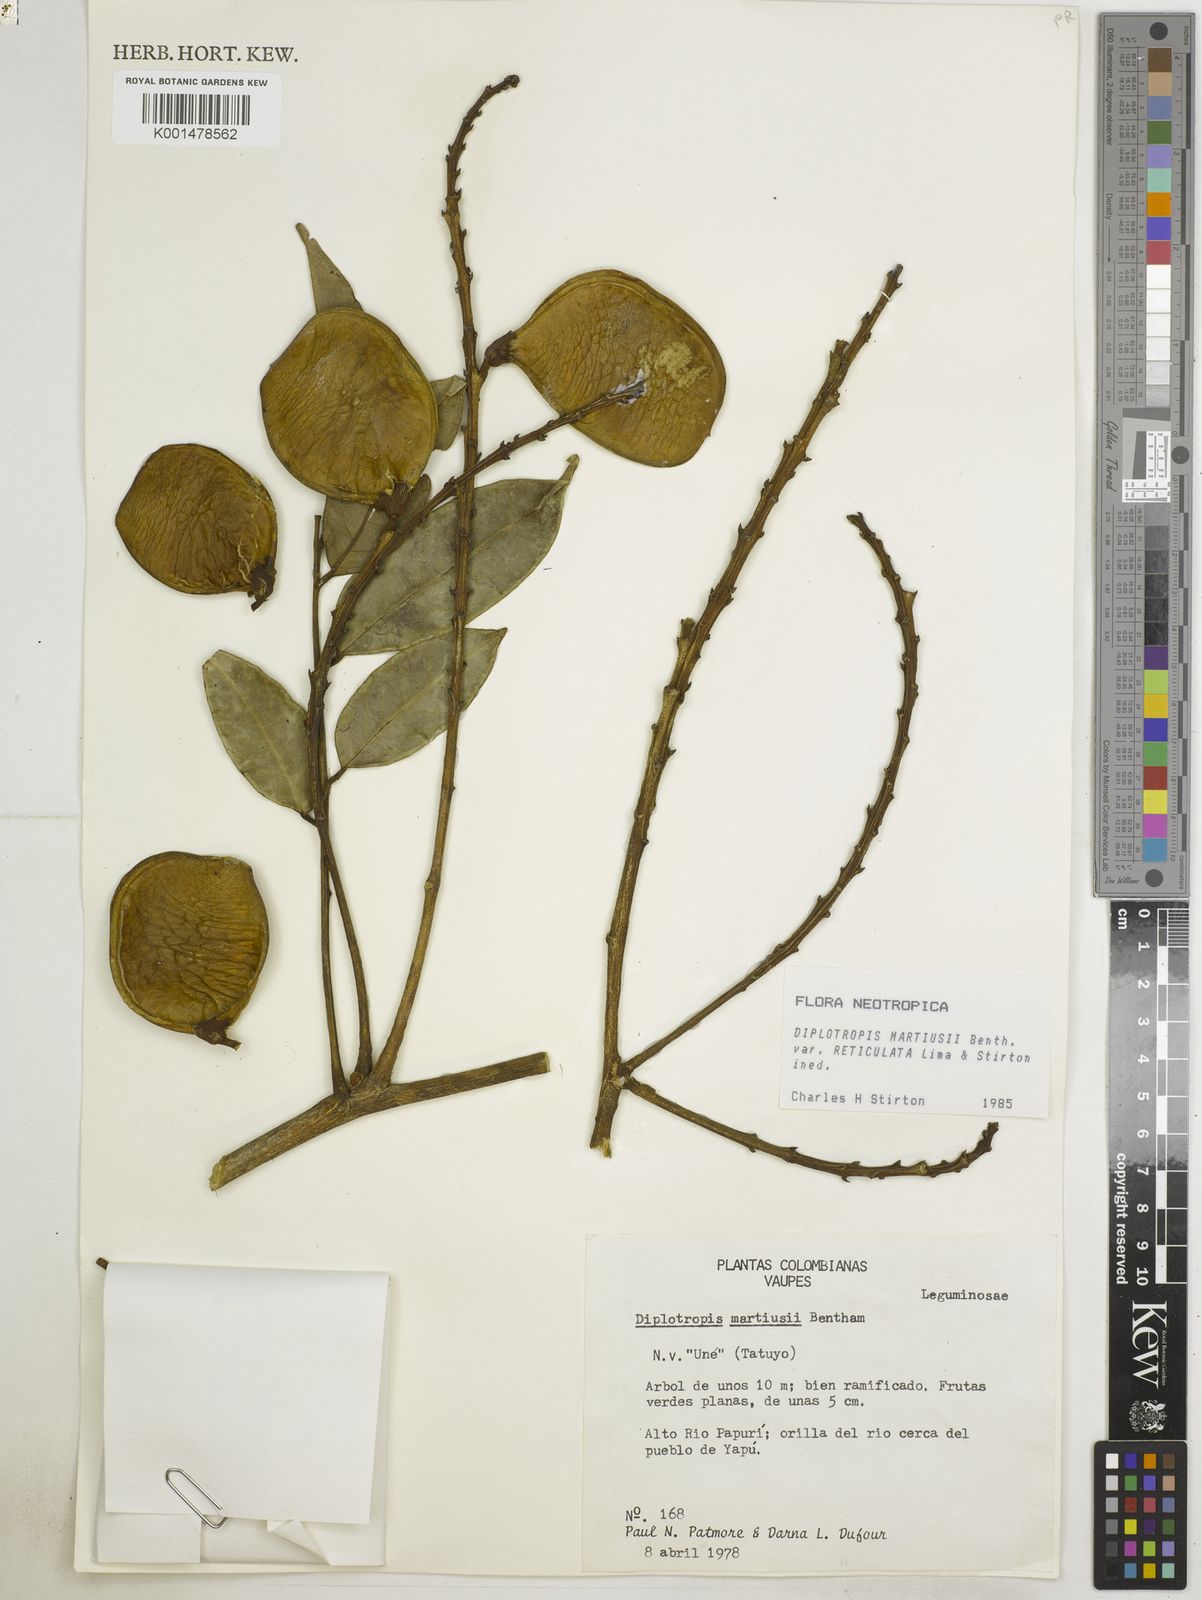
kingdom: Plantae
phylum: Tracheophyta
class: Magnoliopsida
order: Fabales
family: Fabaceae
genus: Diplotropis
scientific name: Diplotropis martiusii
